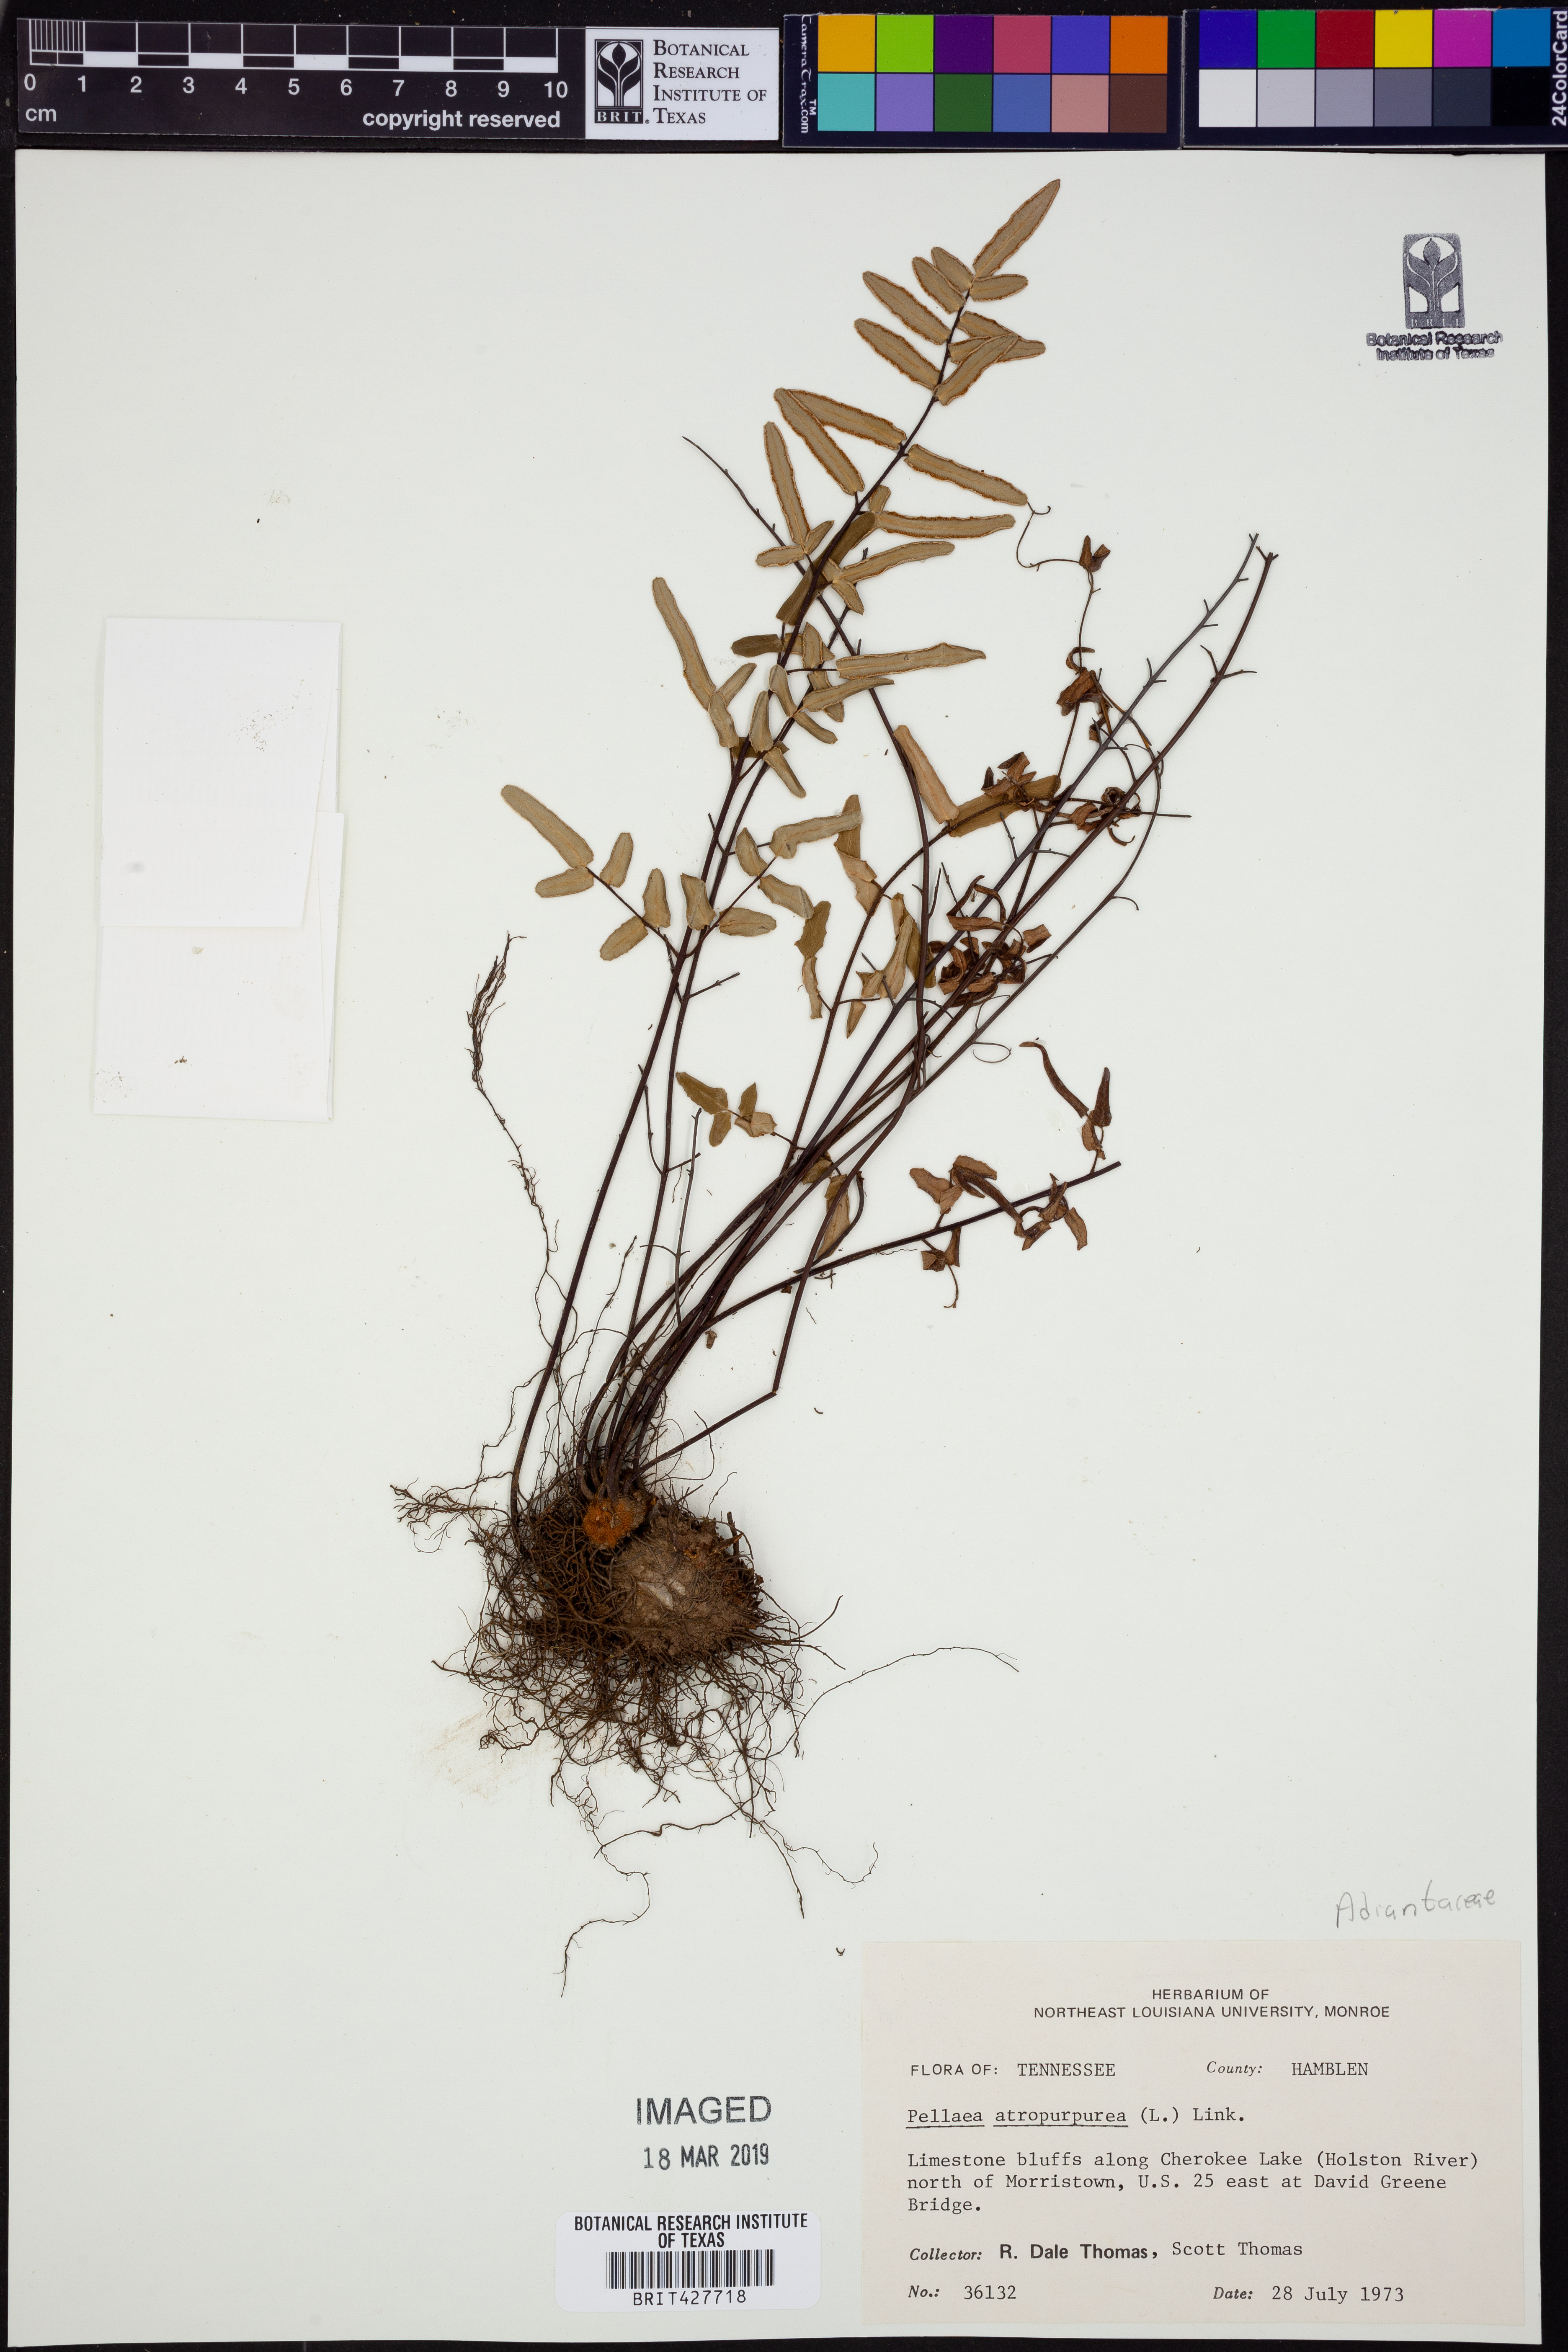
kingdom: Plantae
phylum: Tracheophyta
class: Polypodiopsida
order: Polypodiales
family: Pteridaceae
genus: Pellaea
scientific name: Pellaea atropurpurea
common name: Hairy cliffbrake
